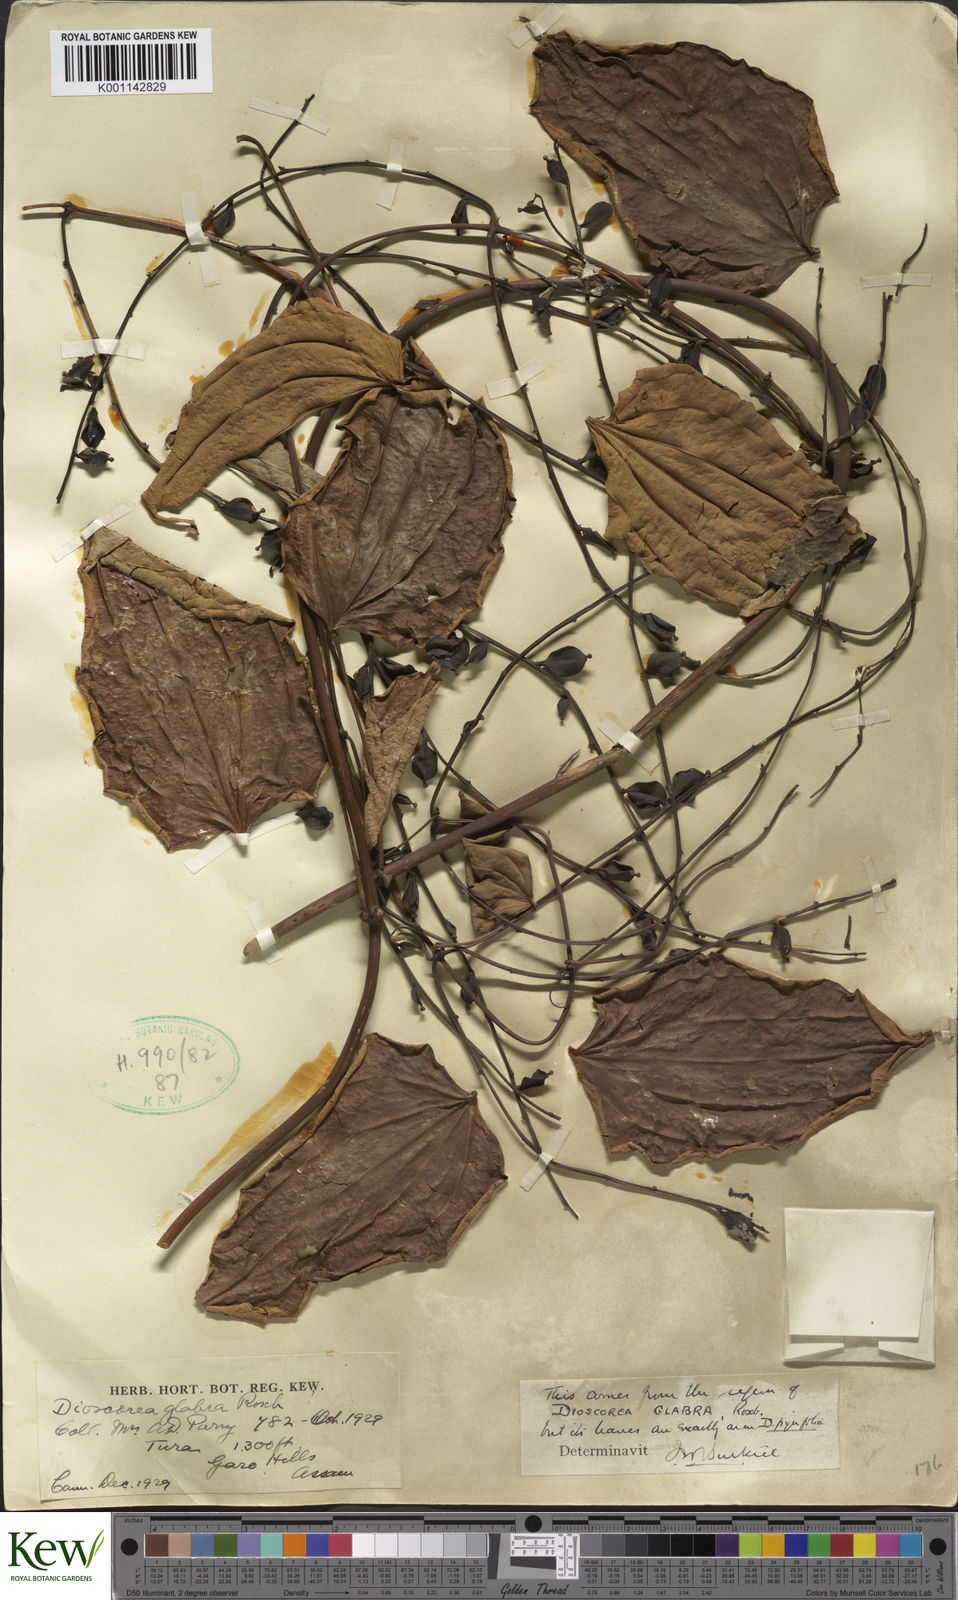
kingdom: Plantae
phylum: Tracheophyta
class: Liliopsida
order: Dioscoreales
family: Dioscoreaceae
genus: Dioscorea
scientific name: Dioscorea glabra
